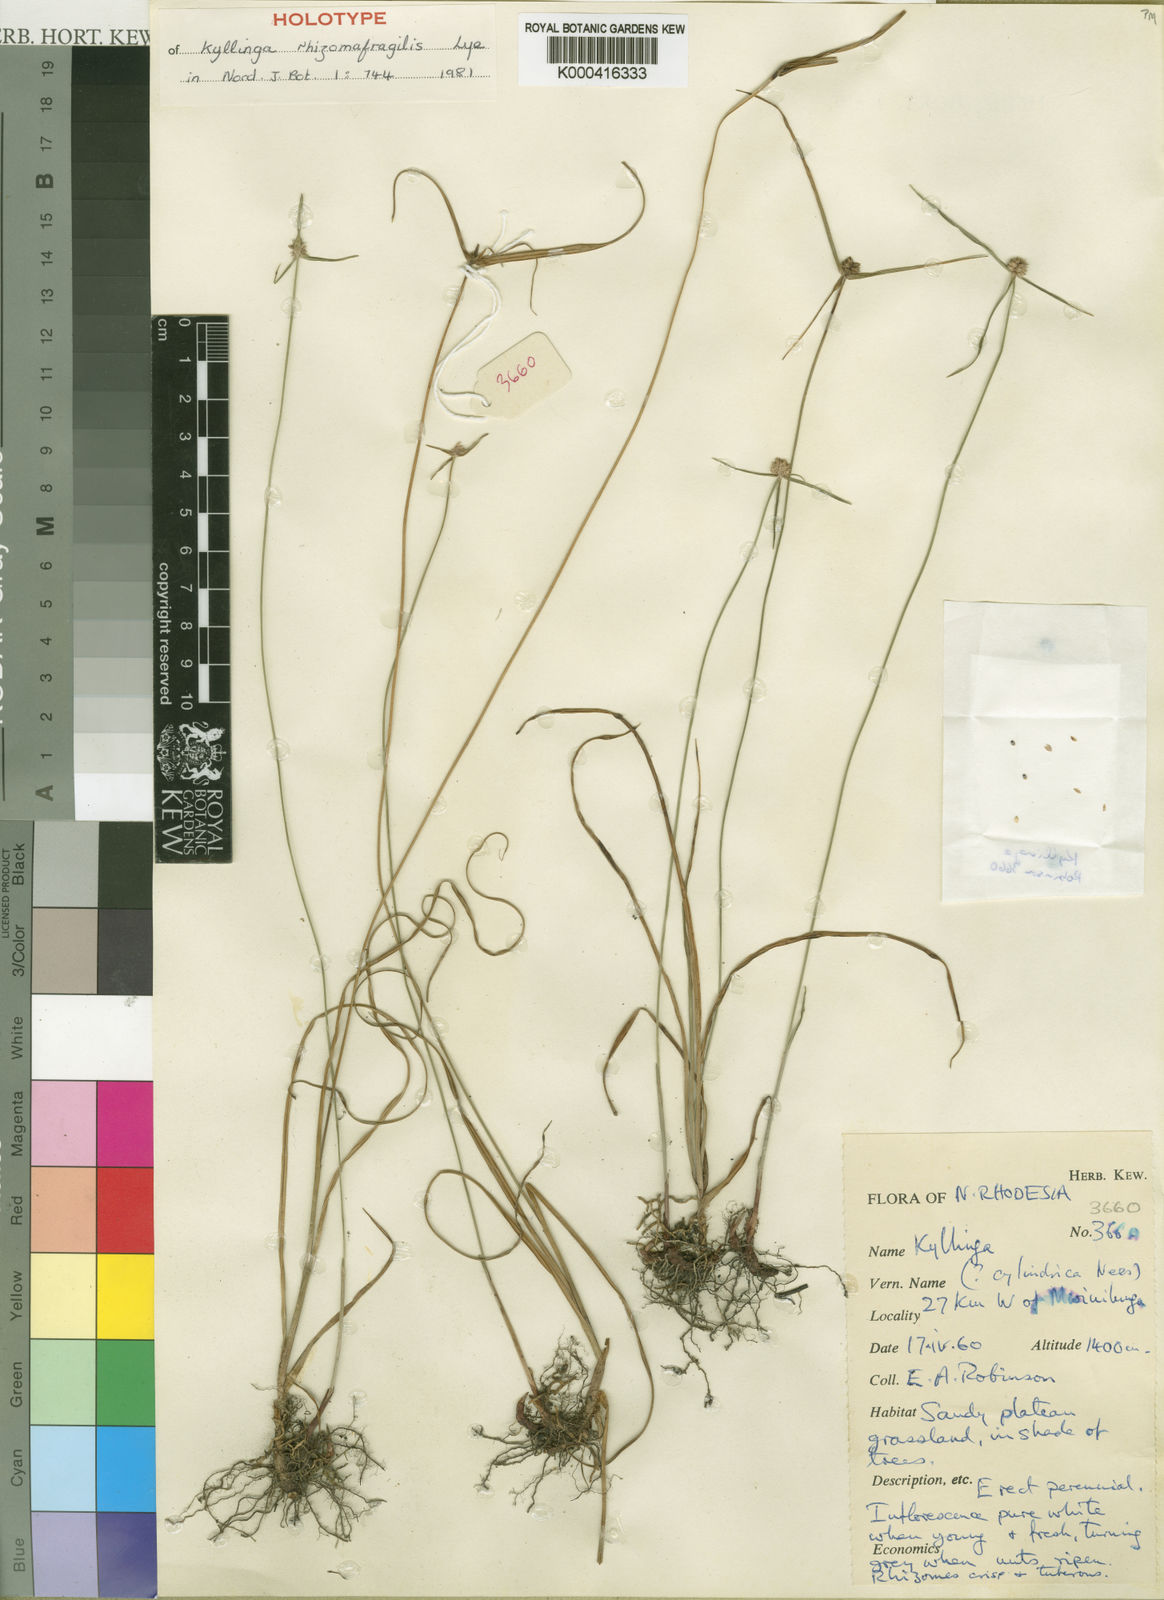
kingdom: Plantae
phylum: Tracheophyta
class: Liliopsida
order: Poales
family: Cyperaceae
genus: Cyperus
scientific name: Cyperus rhizomafragilis
